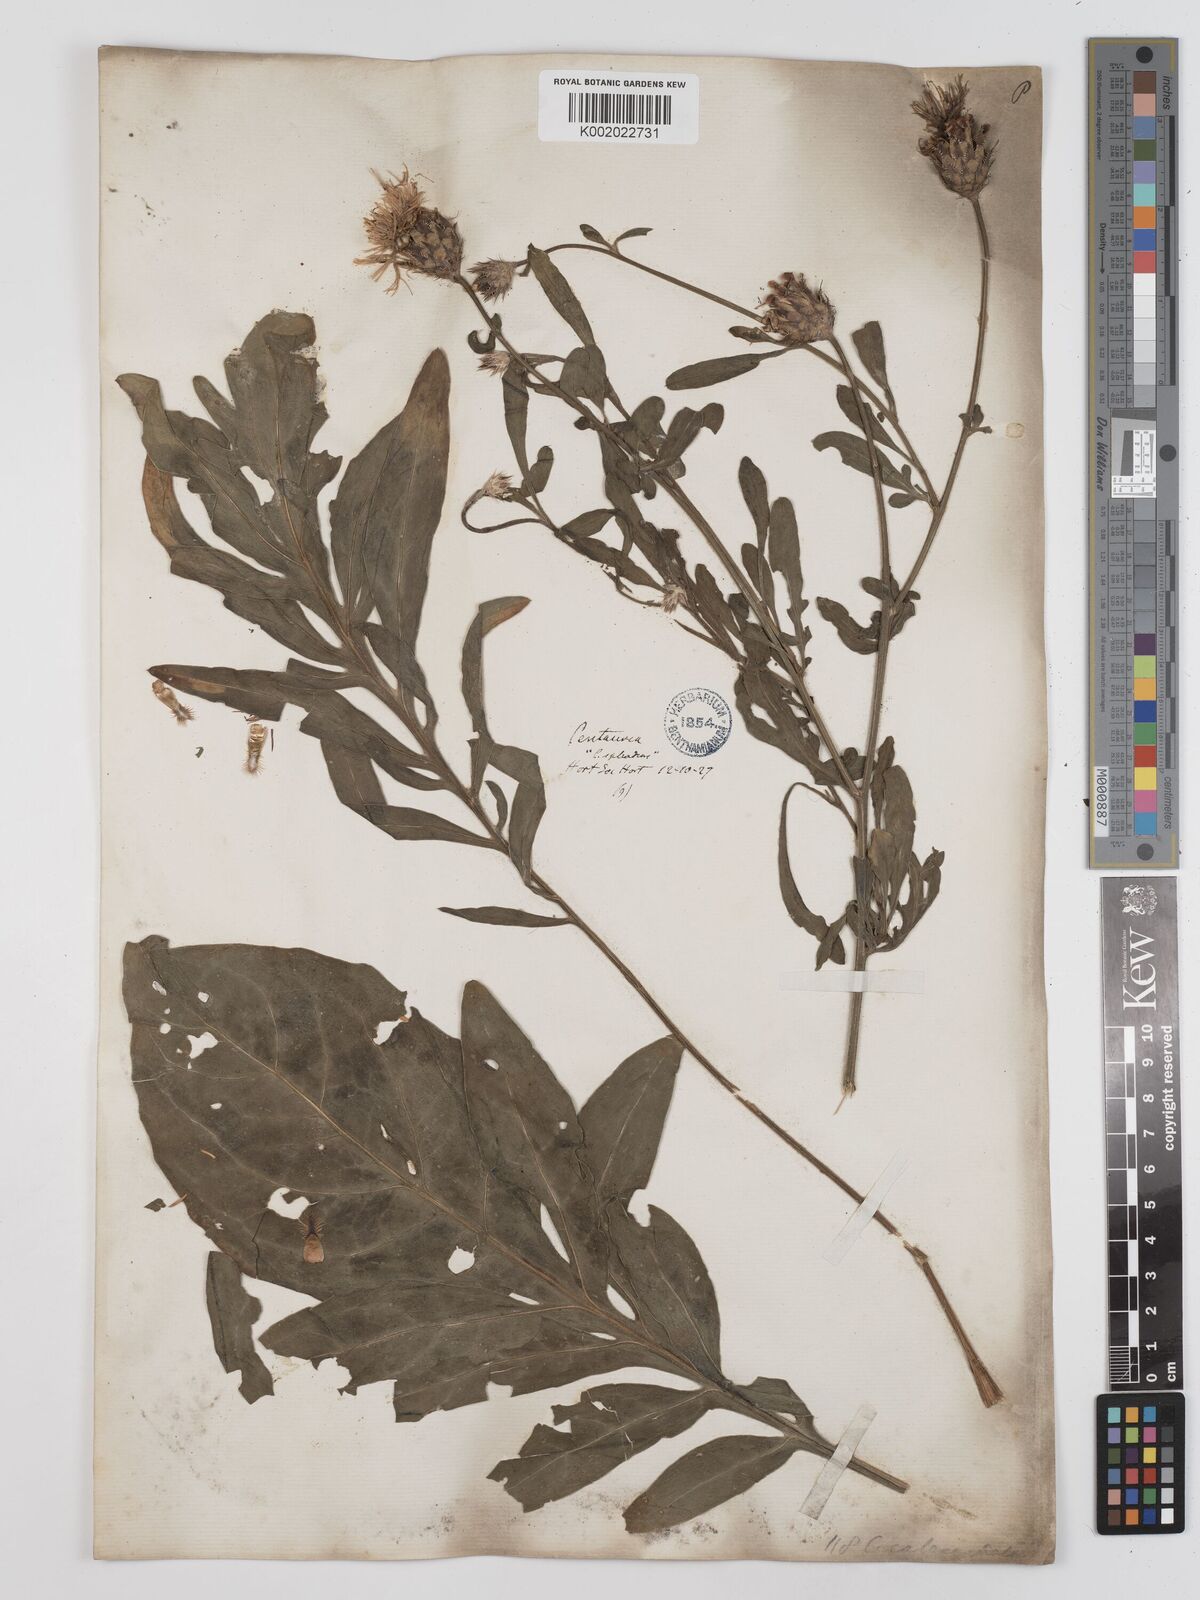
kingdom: Plantae
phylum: Tracheophyta
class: Magnoliopsida
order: Asterales
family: Asteraceae
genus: Centaurea
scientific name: Centaurea
